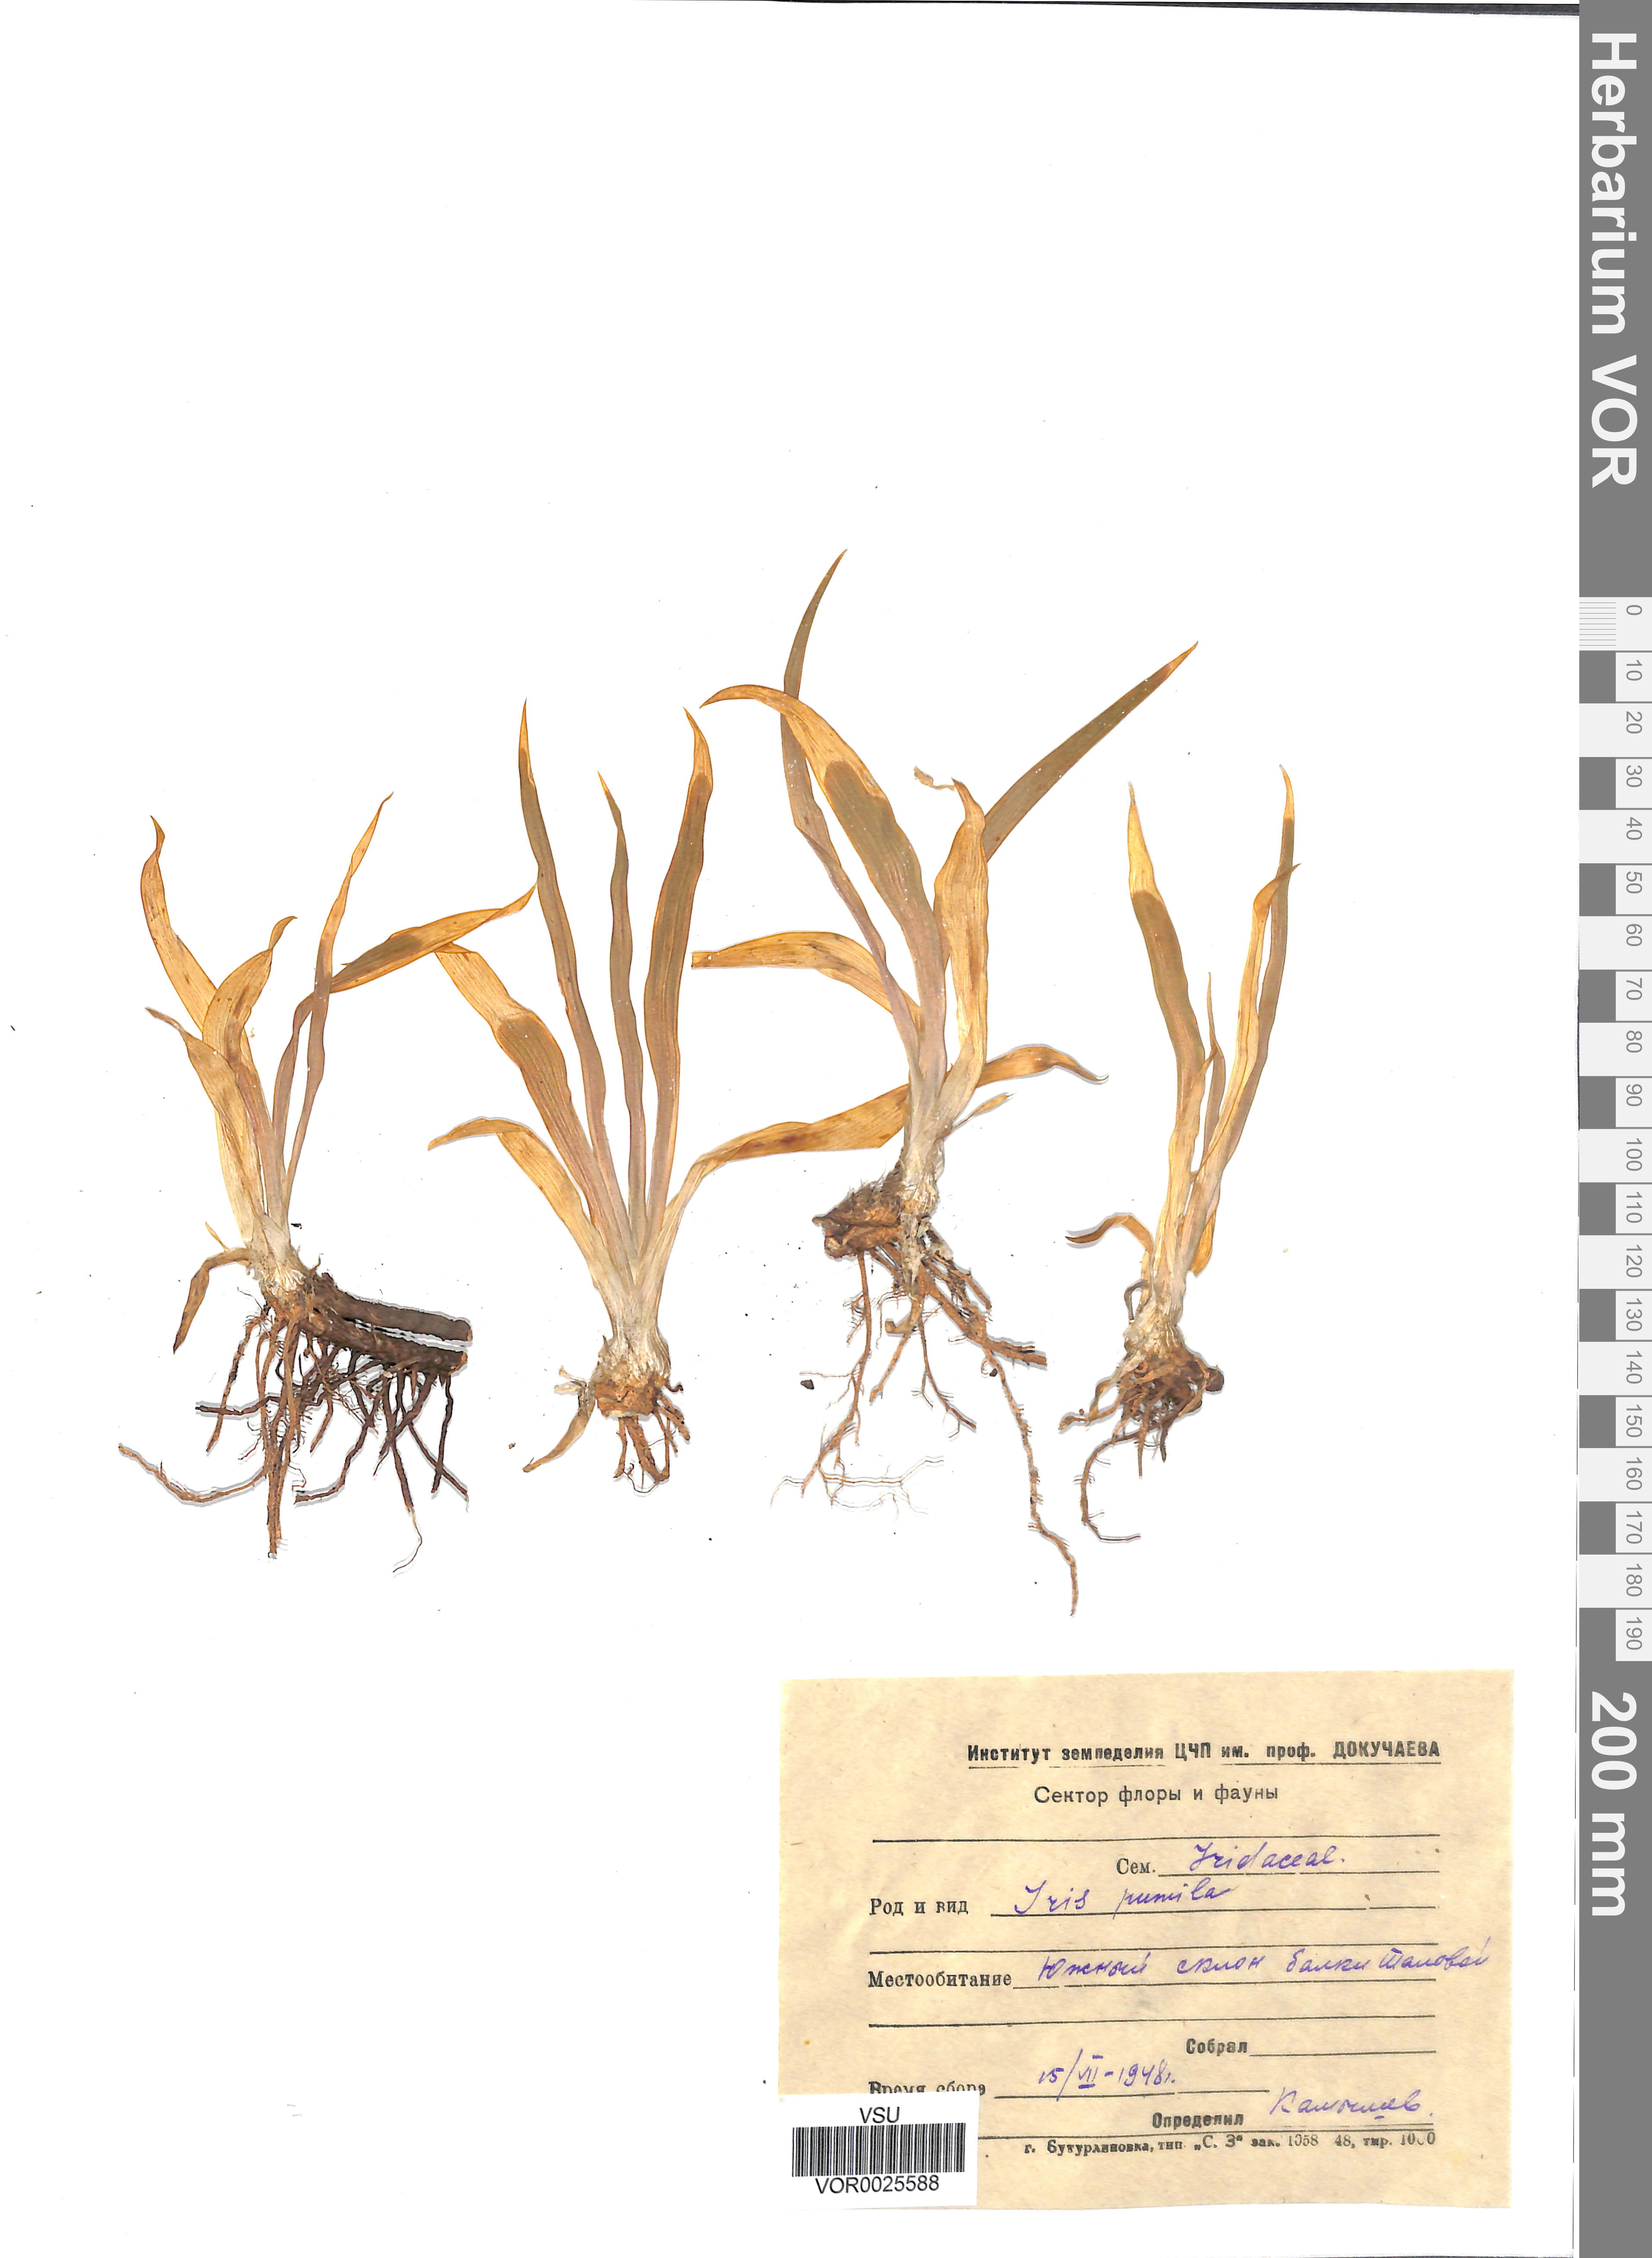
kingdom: Plantae
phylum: Tracheophyta
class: Liliopsida
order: Asparagales
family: Iridaceae
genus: Iris
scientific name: Iris pumila
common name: Dwarf iris
